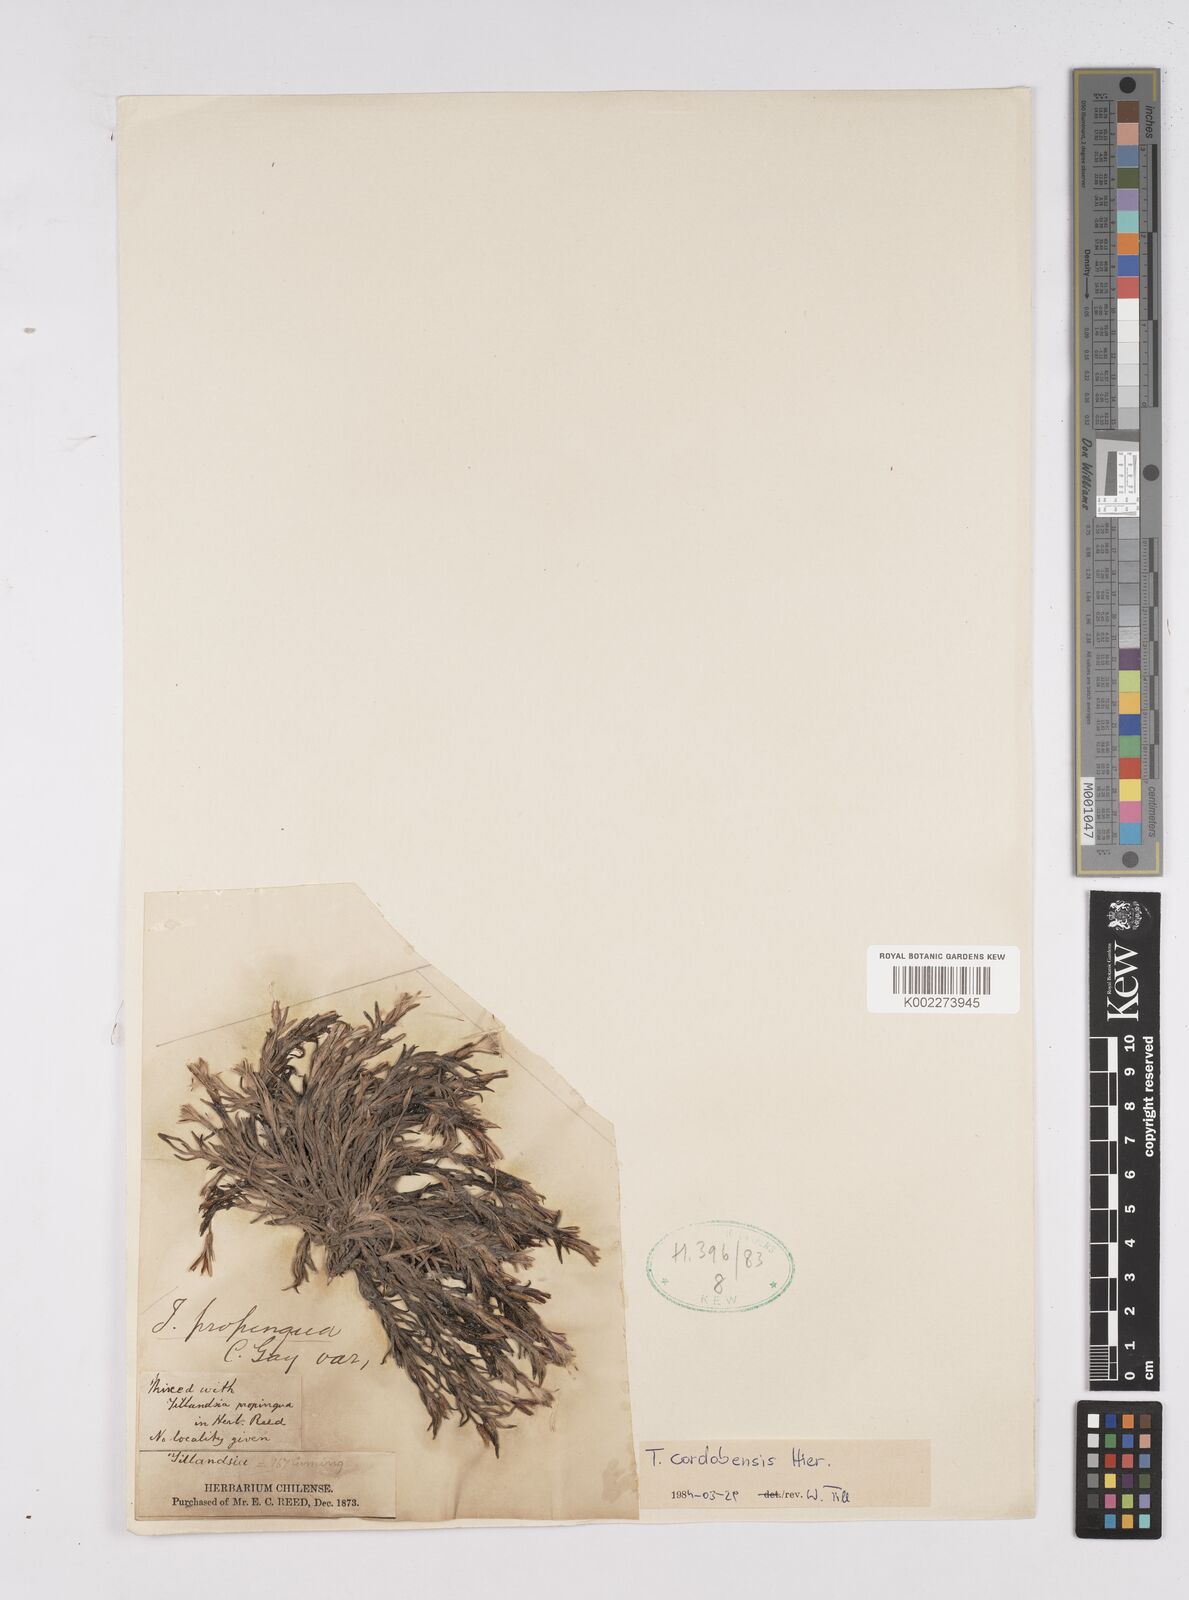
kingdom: Plantae
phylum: Tracheophyta
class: Liliopsida
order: Poales
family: Bromeliaceae
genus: Tillandsia
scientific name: Tillandsia virescens
